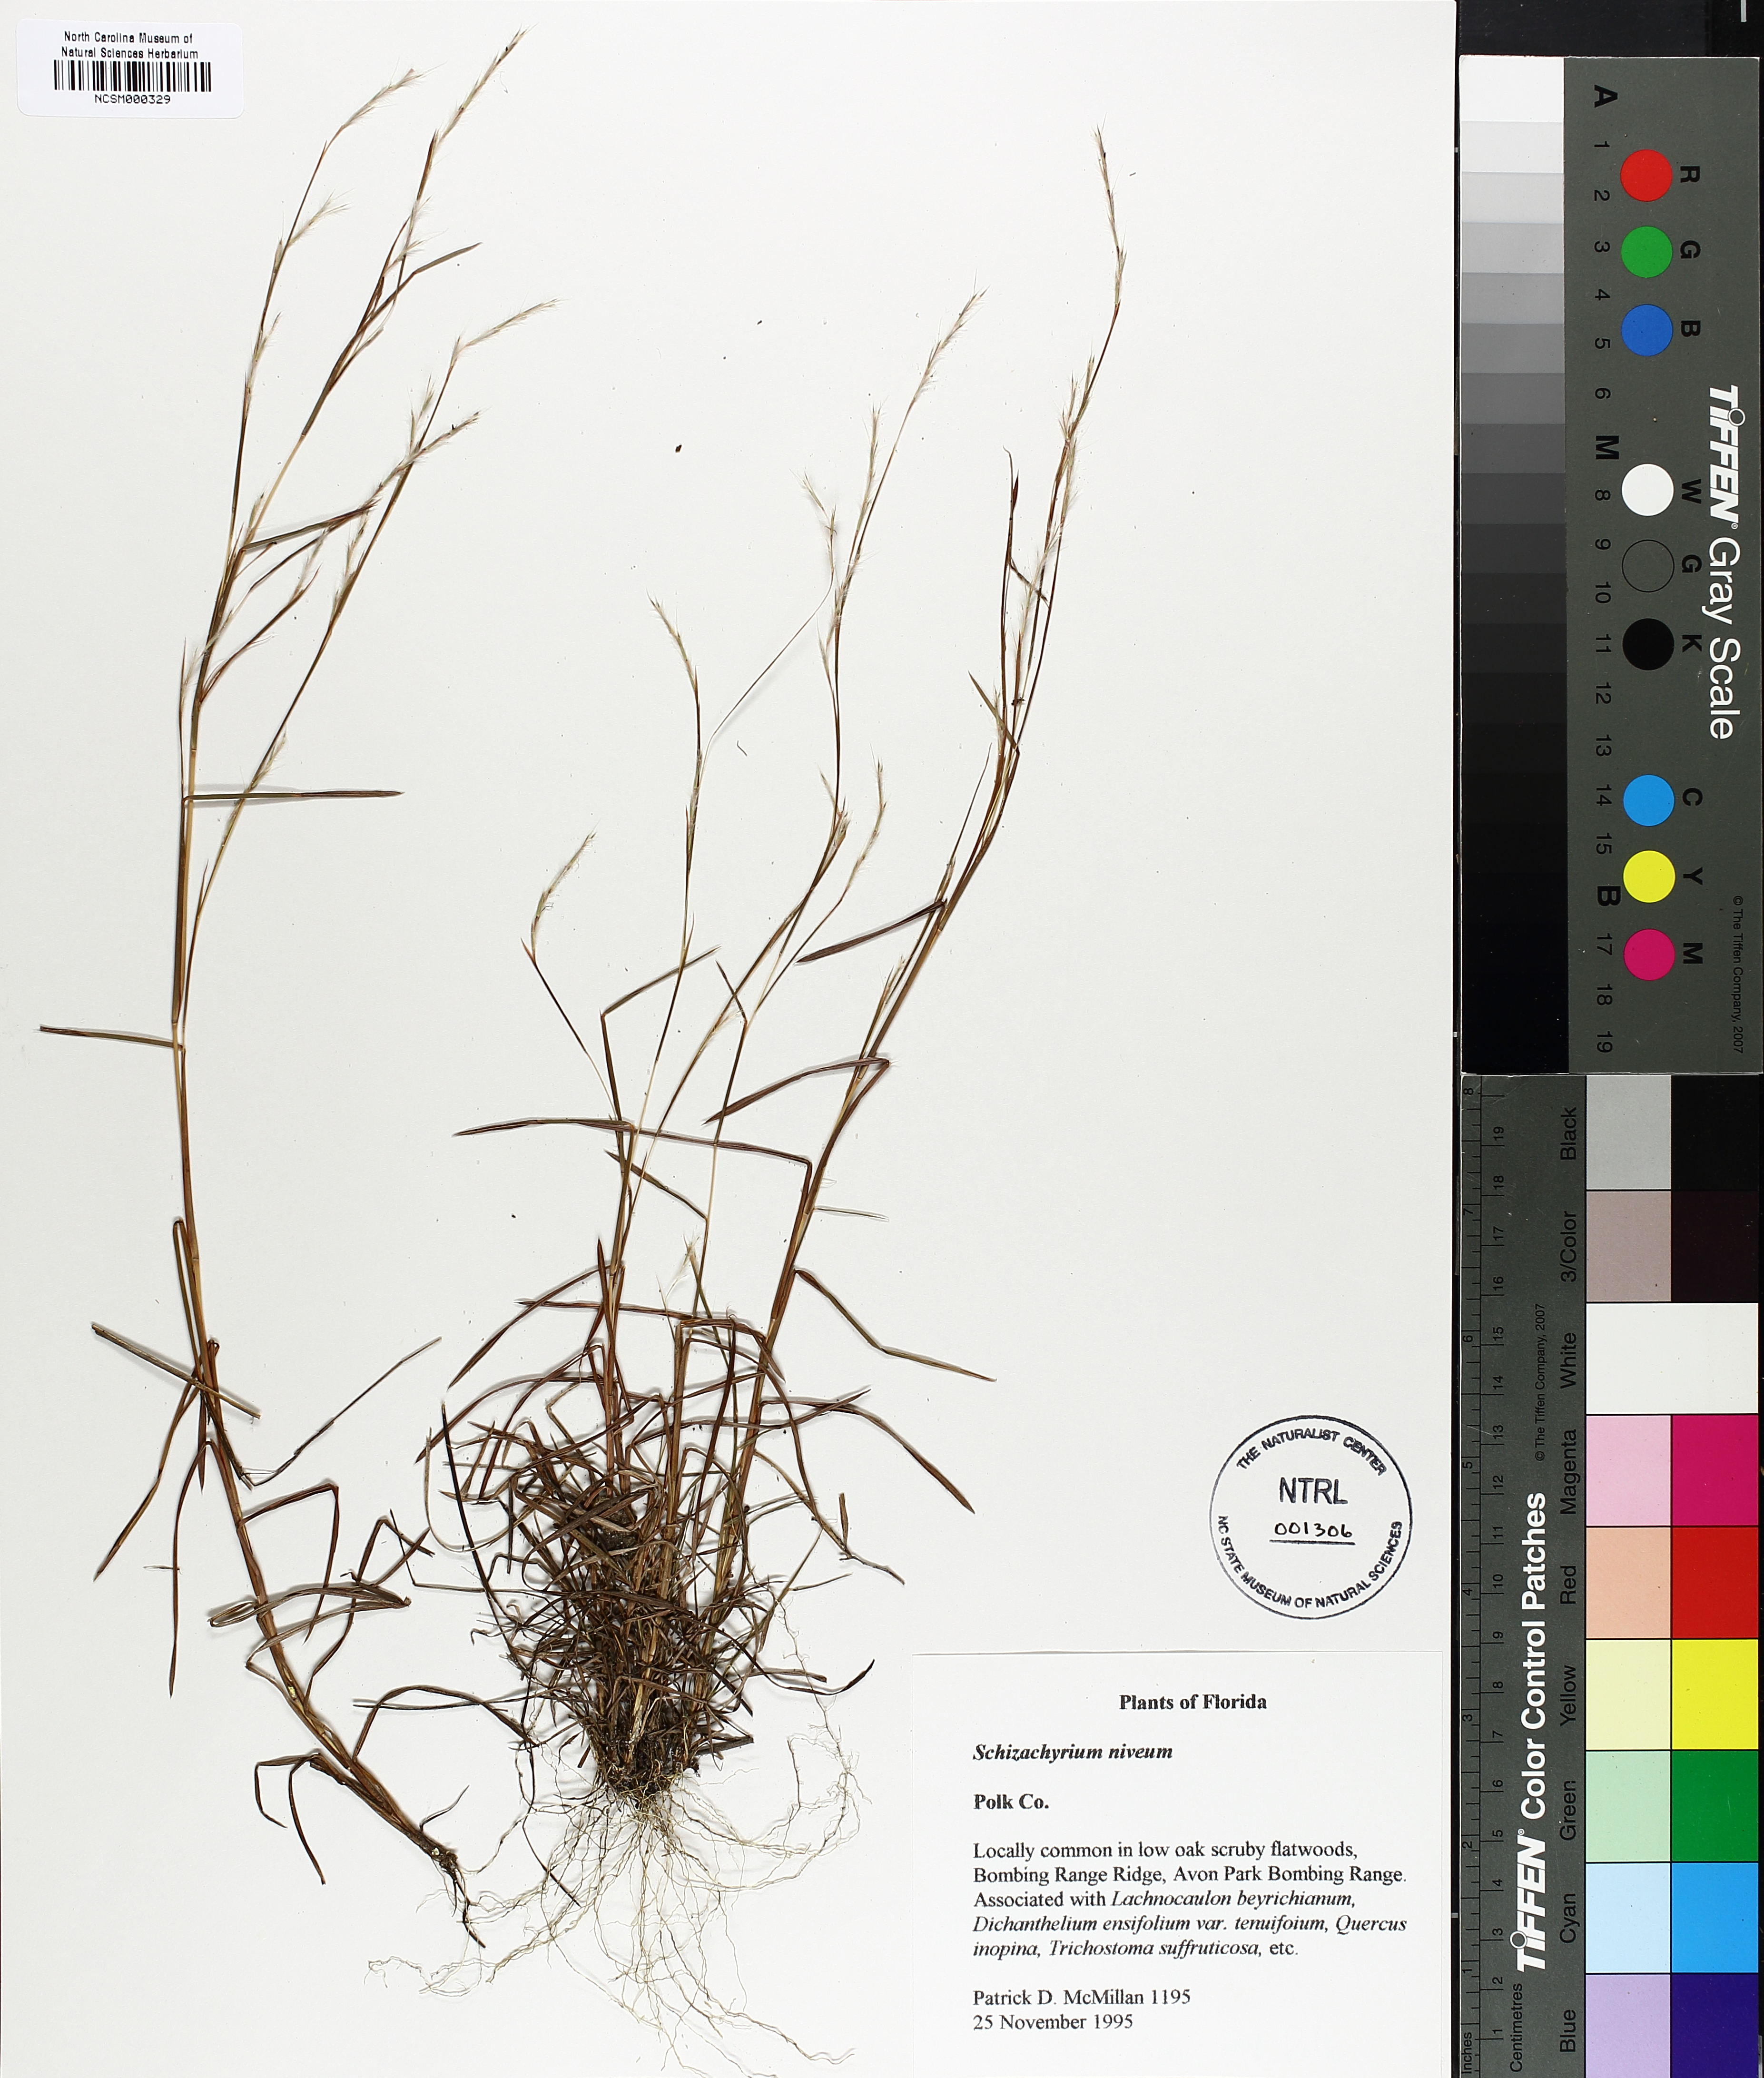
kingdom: Plantae
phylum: Tracheophyta
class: Liliopsida
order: Poales
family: Poaceae
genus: Schizachyrium
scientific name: Schizachyrium niveum
